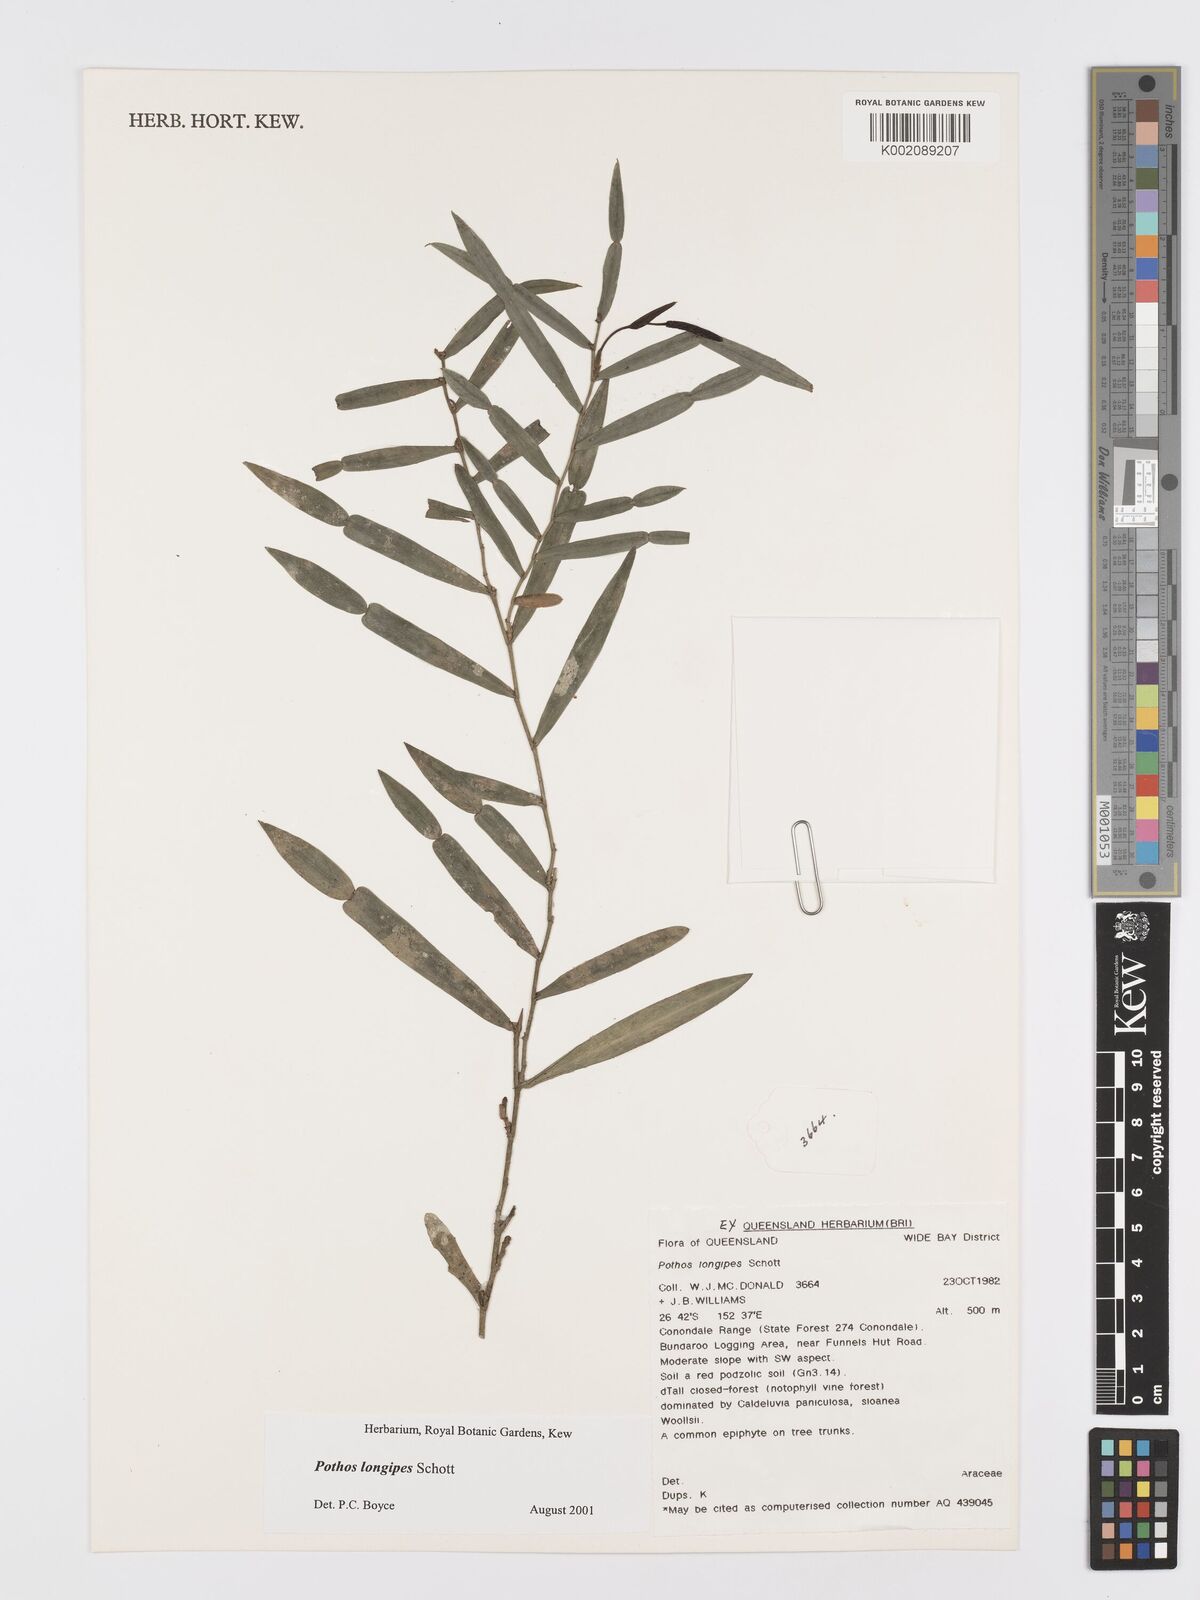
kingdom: Plantae
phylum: Tracheophyta
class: Liliopsida
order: Alismatales
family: Araceae
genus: Pothos
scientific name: Pothos longipes
